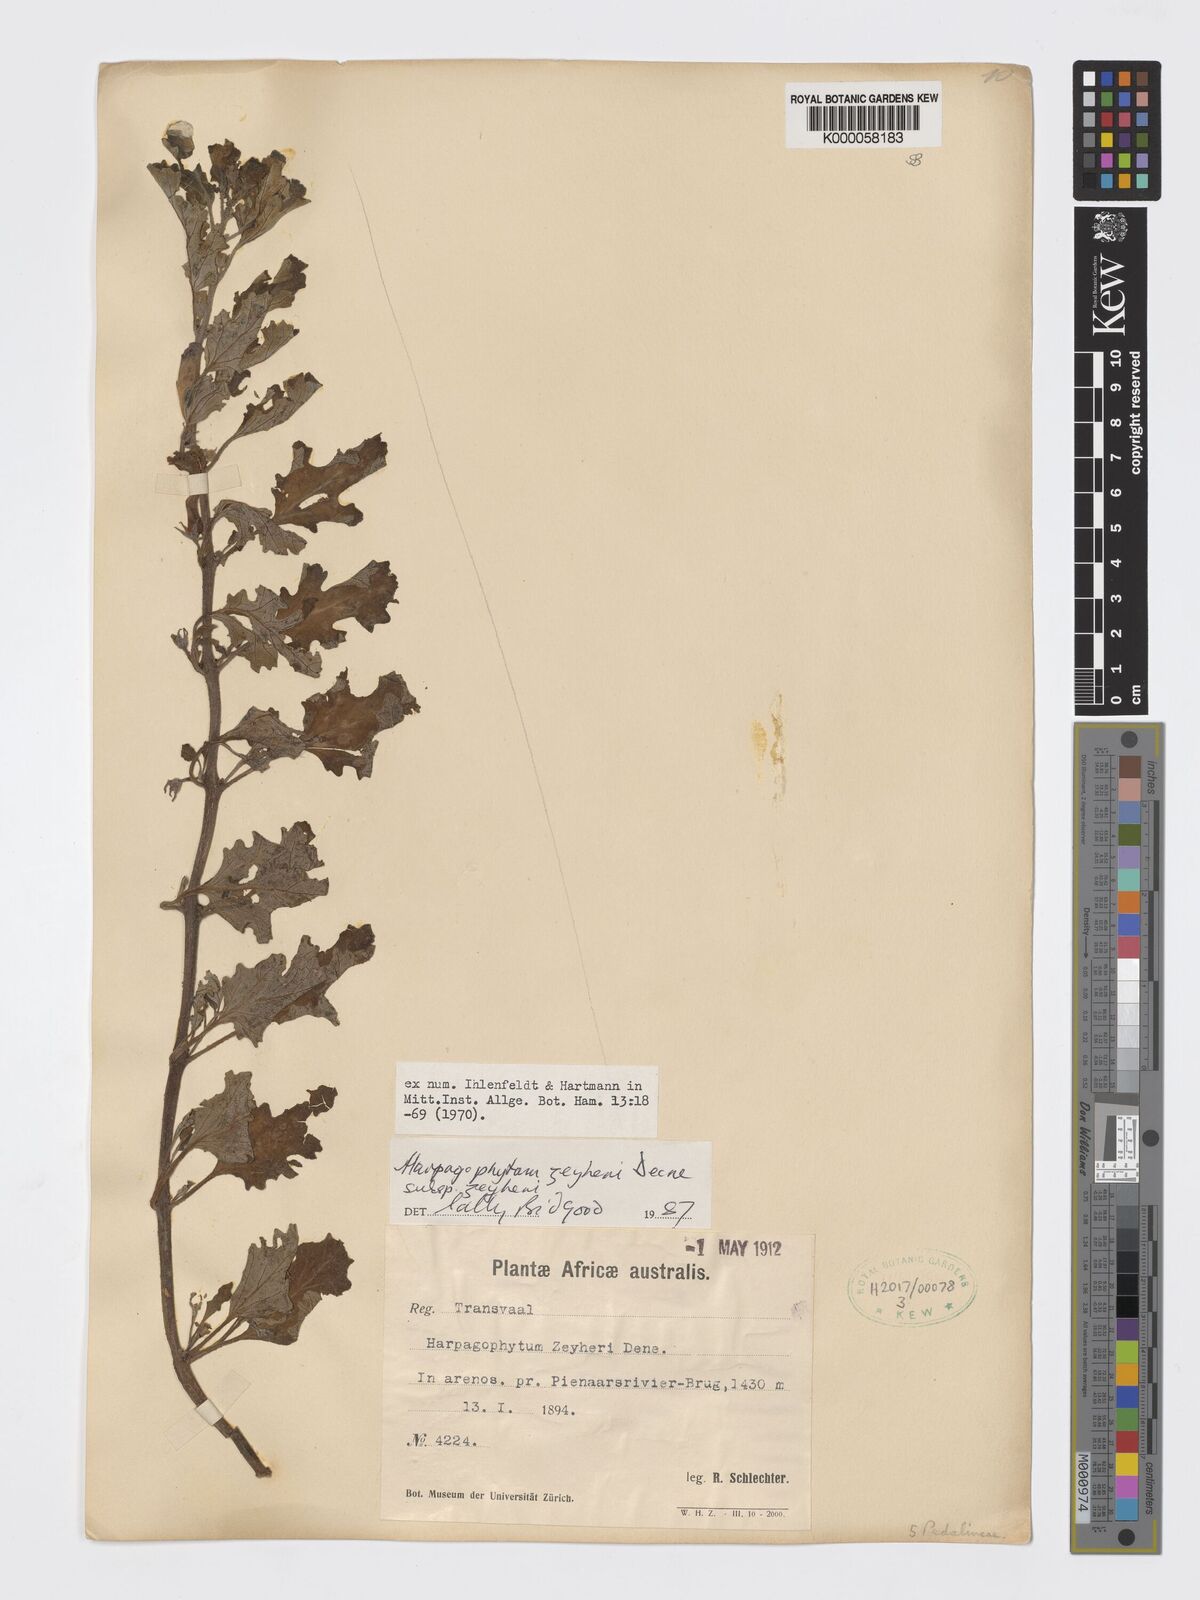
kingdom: Plantae
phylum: Tracheophyta
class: Magnoliopsida
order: Lamiales
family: Pedaliaceae
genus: Harpagophytum
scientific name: Harpagophytum zeyheri
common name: Grappleplant
